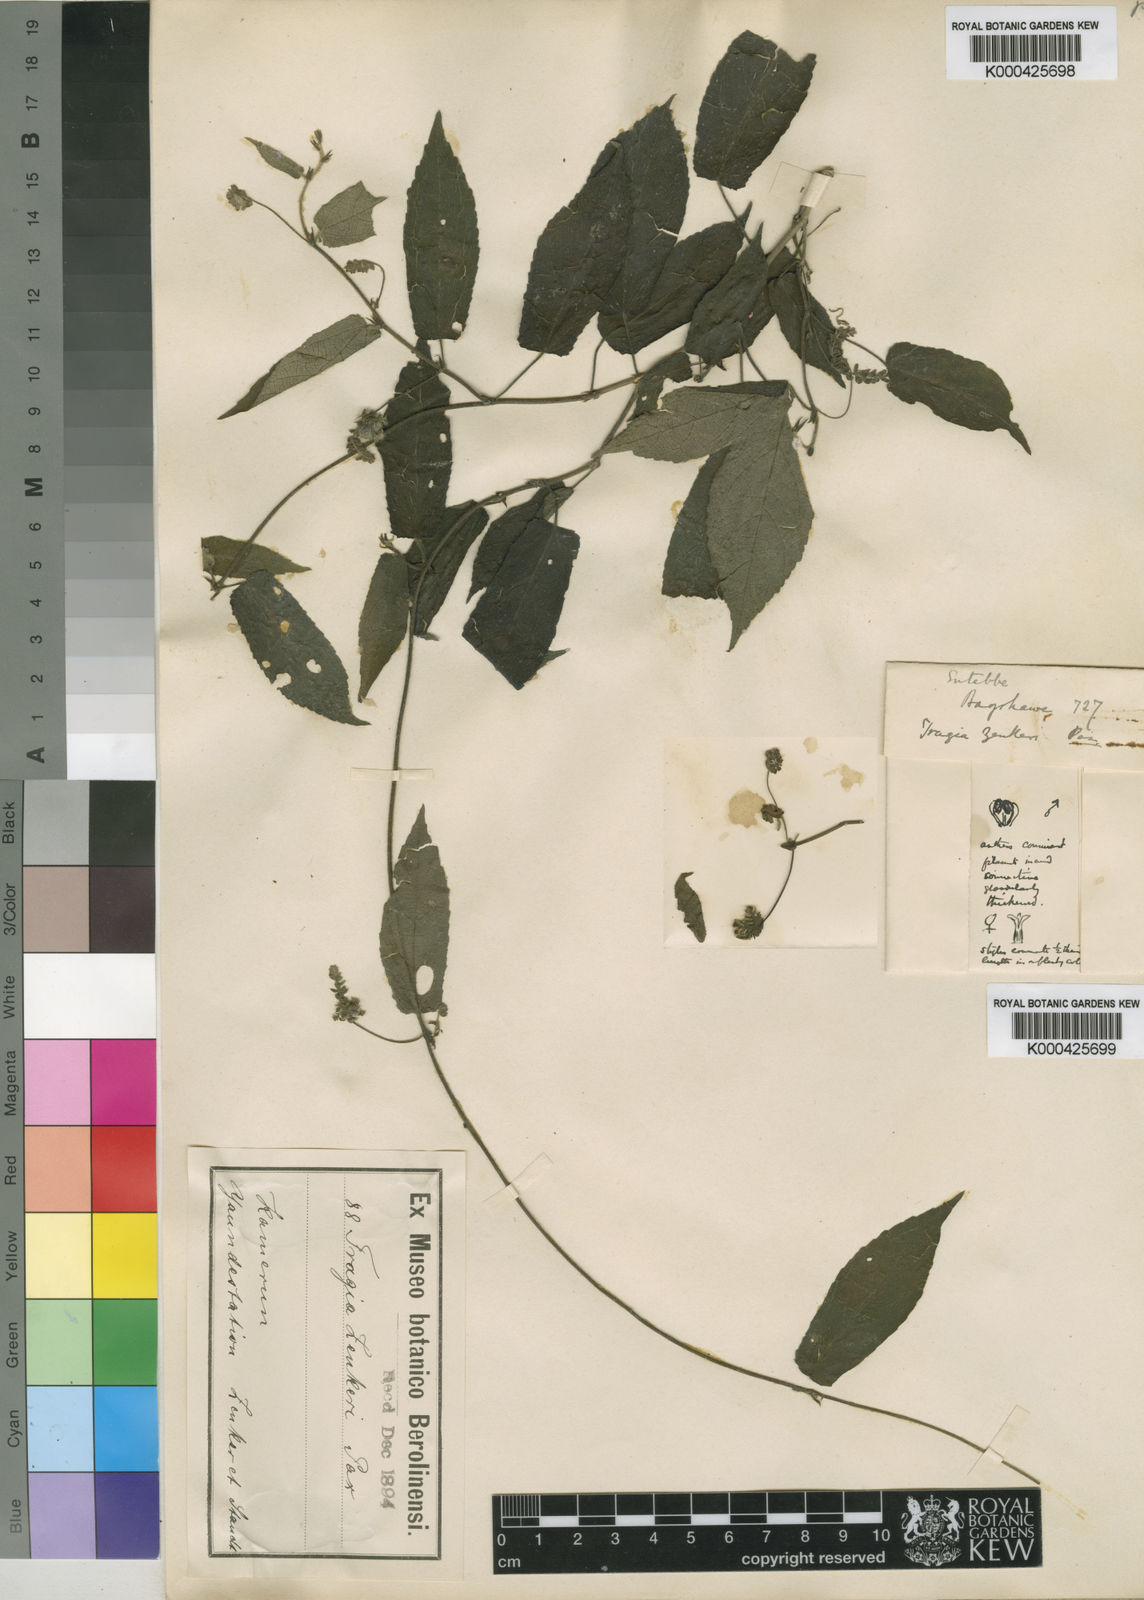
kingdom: Plantae
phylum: Tracheophyta
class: Magnoliopsida
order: Malpighiales
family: Euphorbiaceae
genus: Tragia
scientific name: Tragia tenuifolia
